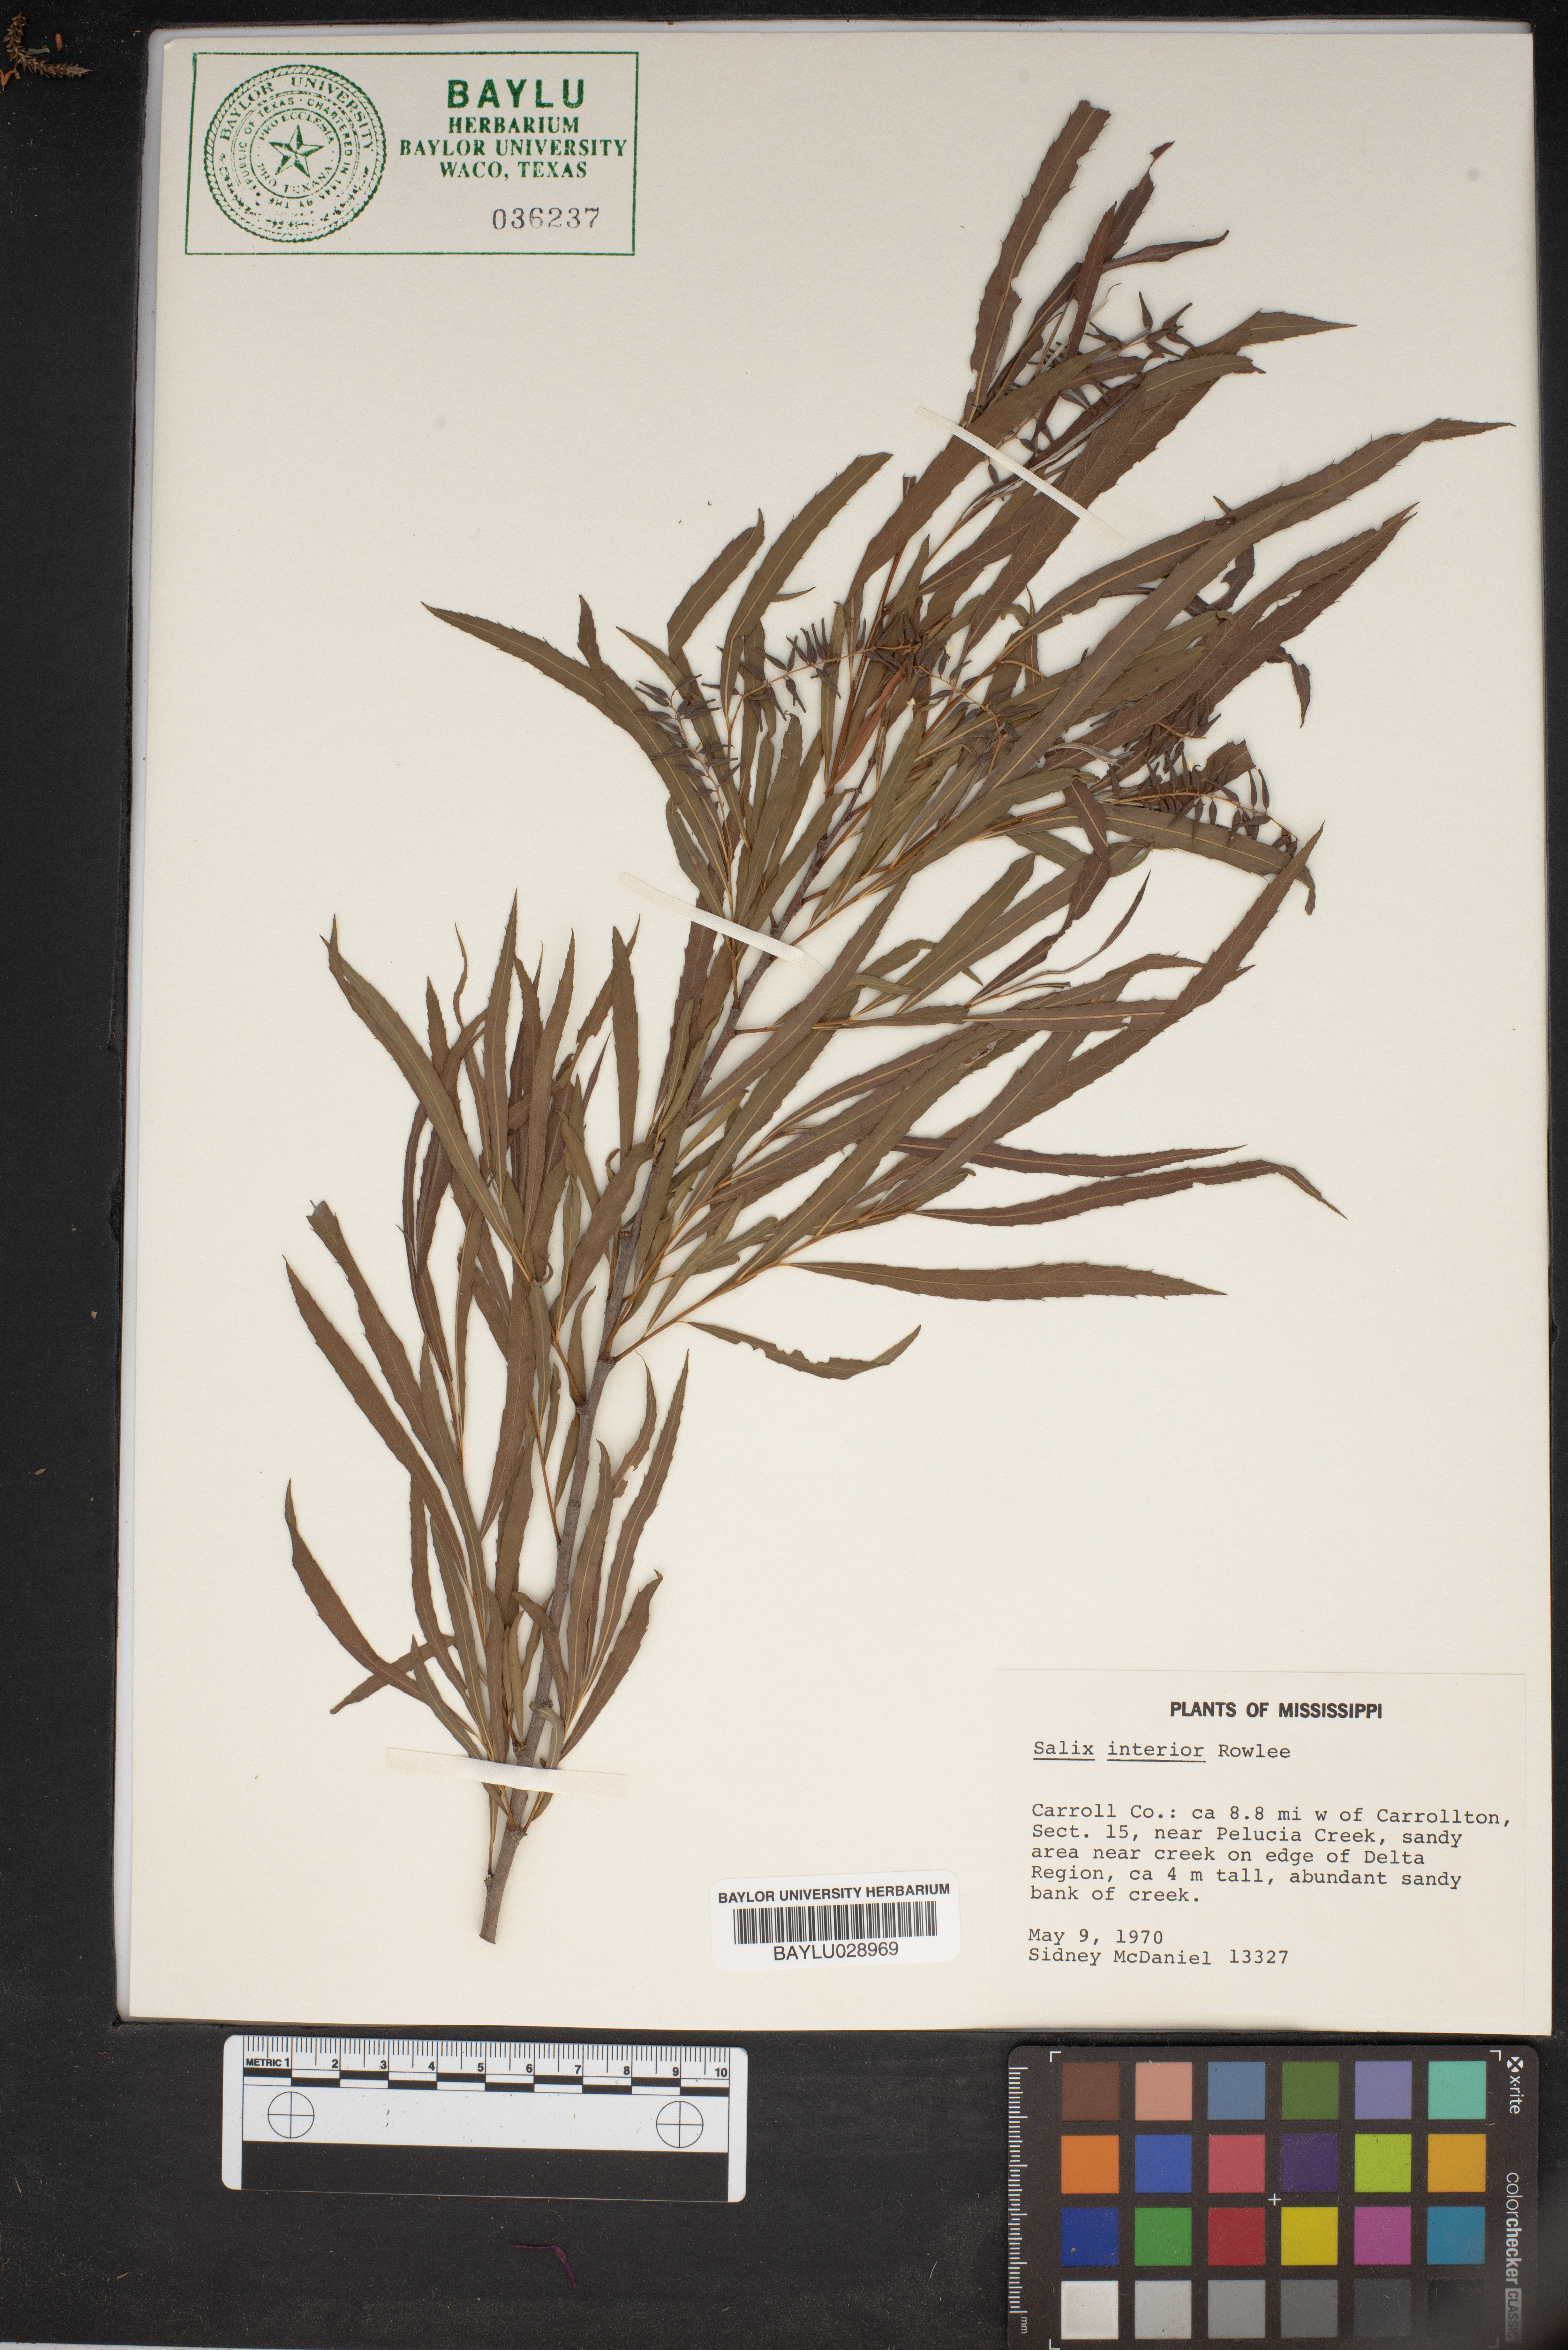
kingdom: Plantae
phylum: Tracheophyta
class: Magnoliopsida
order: Malpighiales
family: Salicaceae
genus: Salix
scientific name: Salix interior
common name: Sandbar willow
